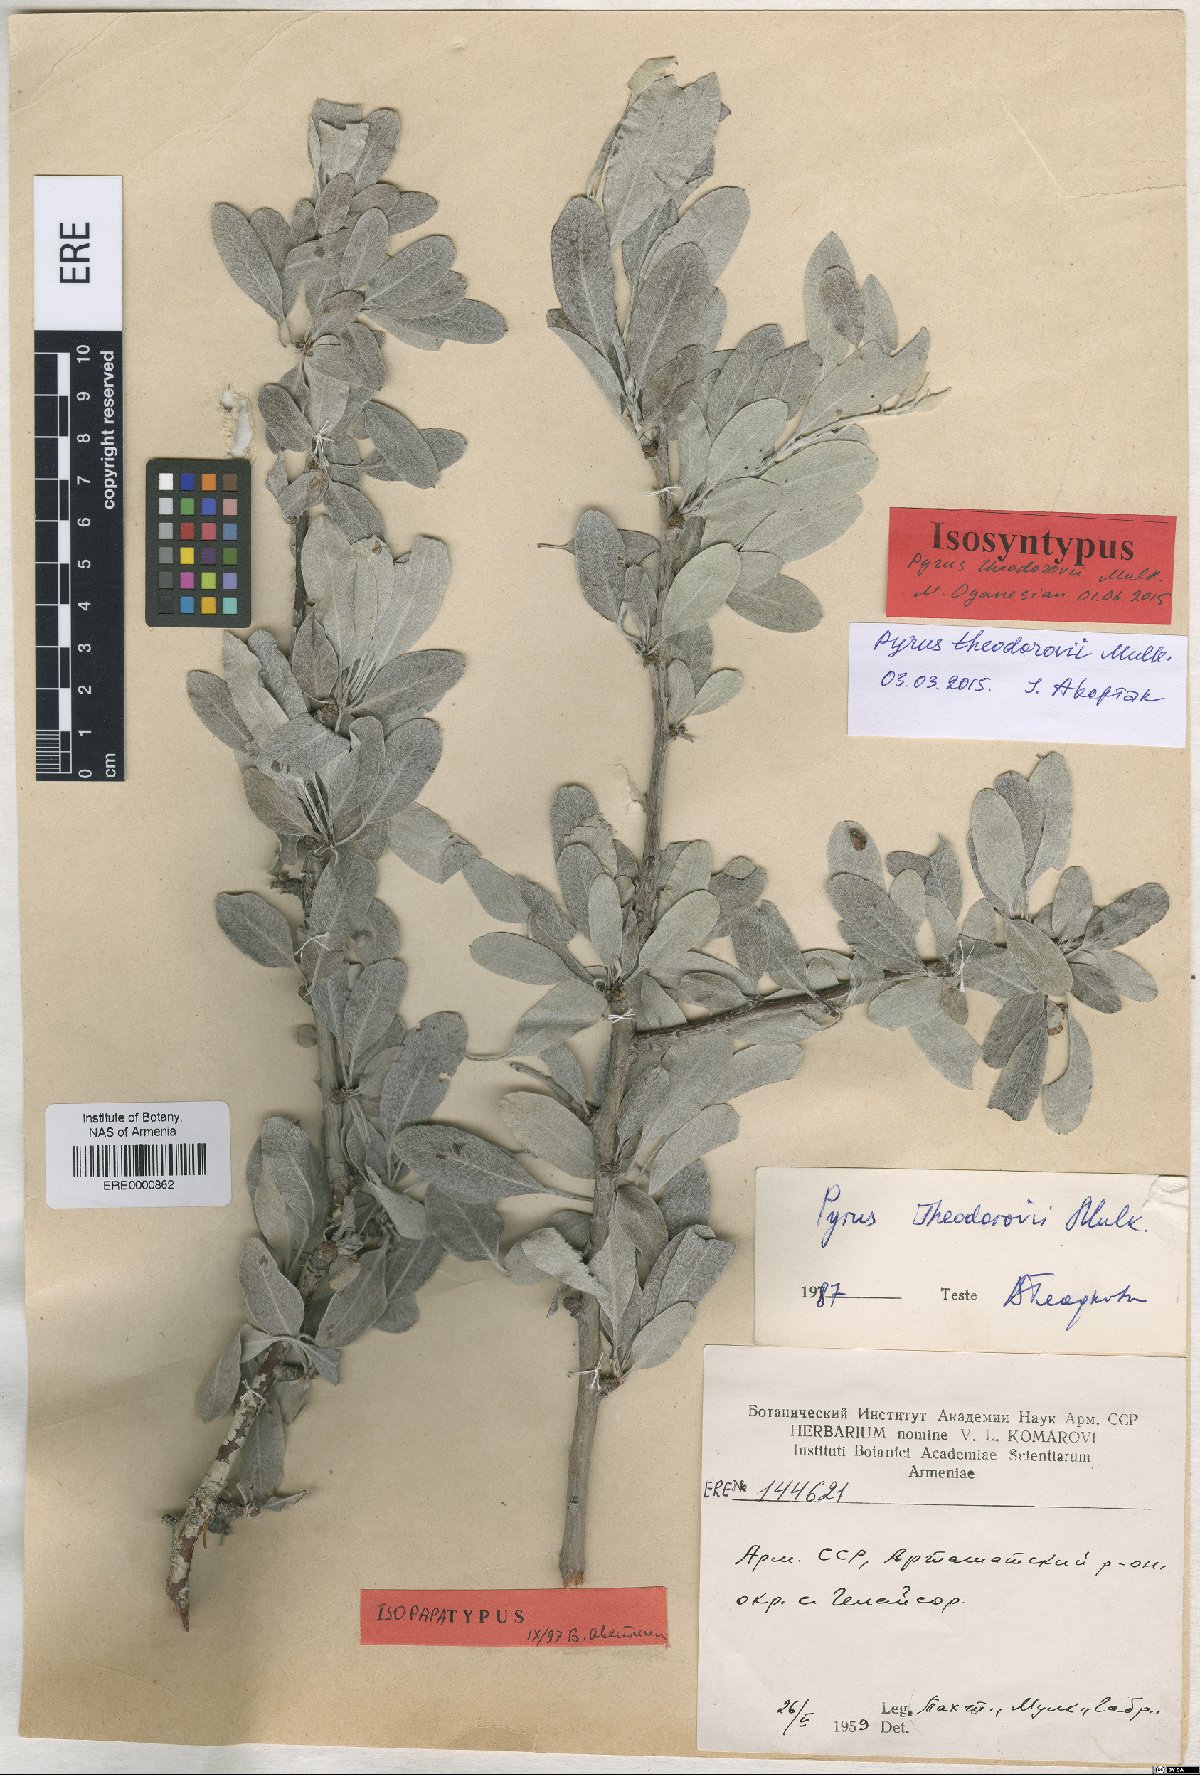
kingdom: Plantae
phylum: Tracheophyta
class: Magnoliopsida
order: Rosales
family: Rosaceae
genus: Pyrus
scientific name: Pyrus theodorovii
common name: Teodorov's pear
